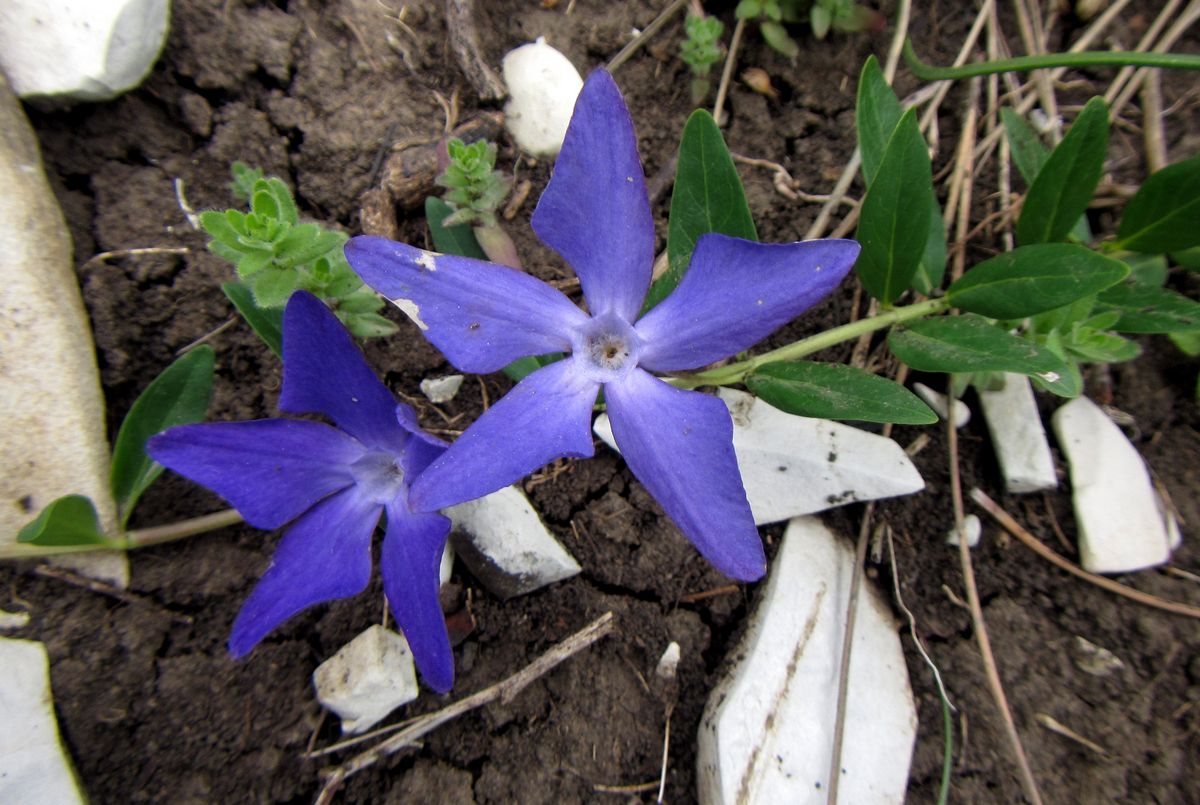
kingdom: Plantae
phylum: Tracheophyta
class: Magnoliopsida
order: Gentianales
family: Apocynaceae
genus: Vinca
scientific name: Vinca herbacea
